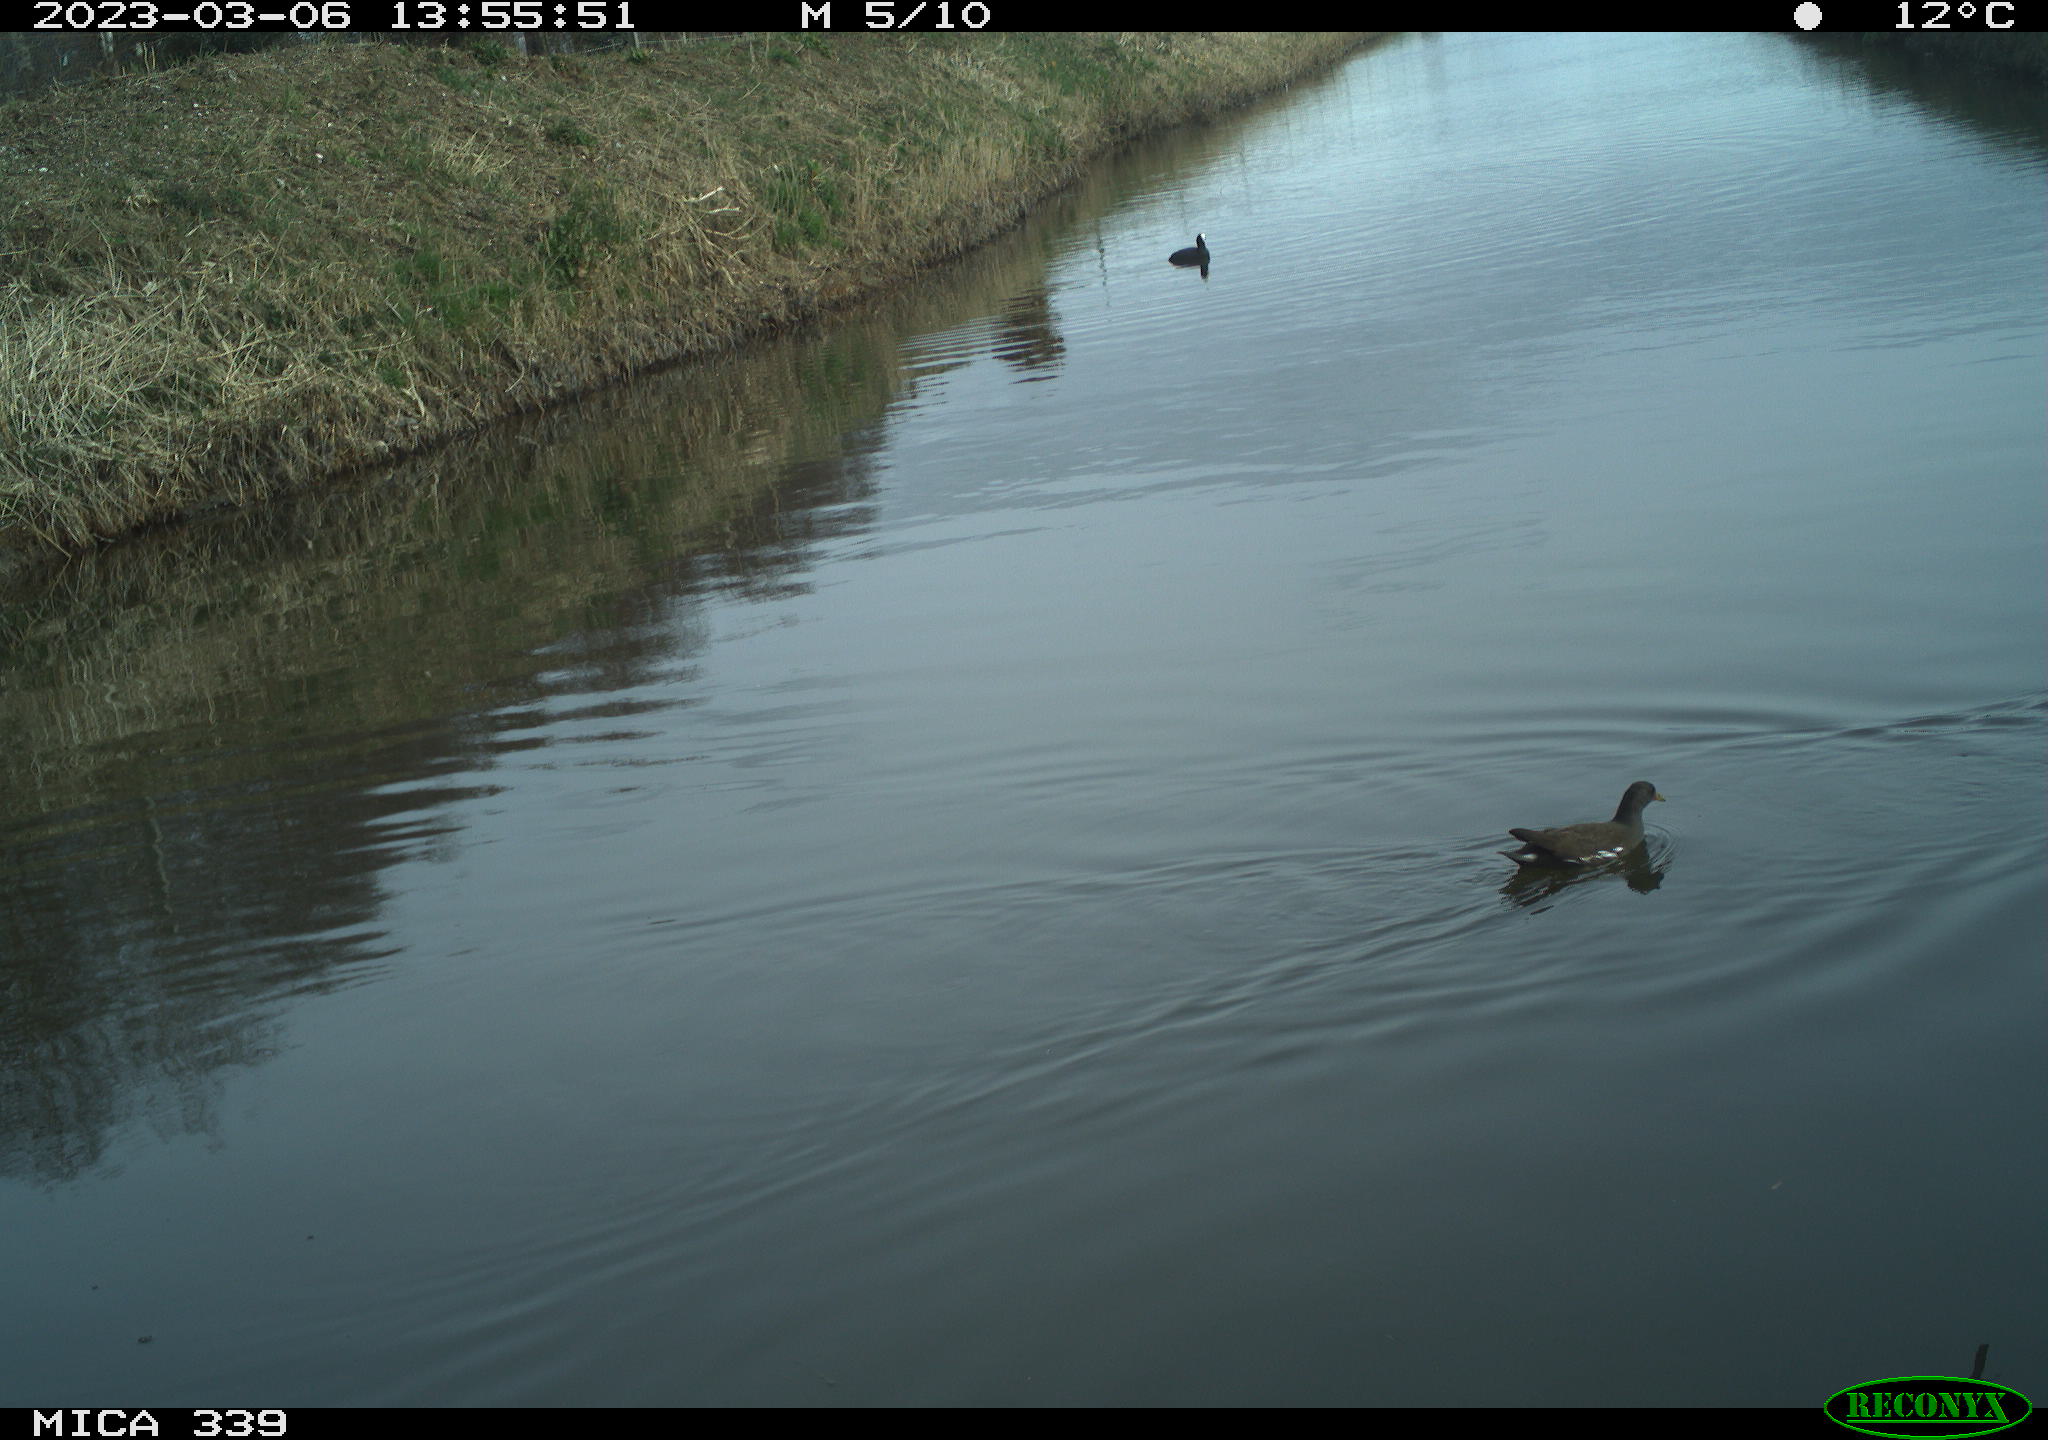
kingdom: Animalia
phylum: Chordata
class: Aves
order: Gruiformes
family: Rallidae
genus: Gallinula
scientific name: Gallinula chloropus
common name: Common moorhen
